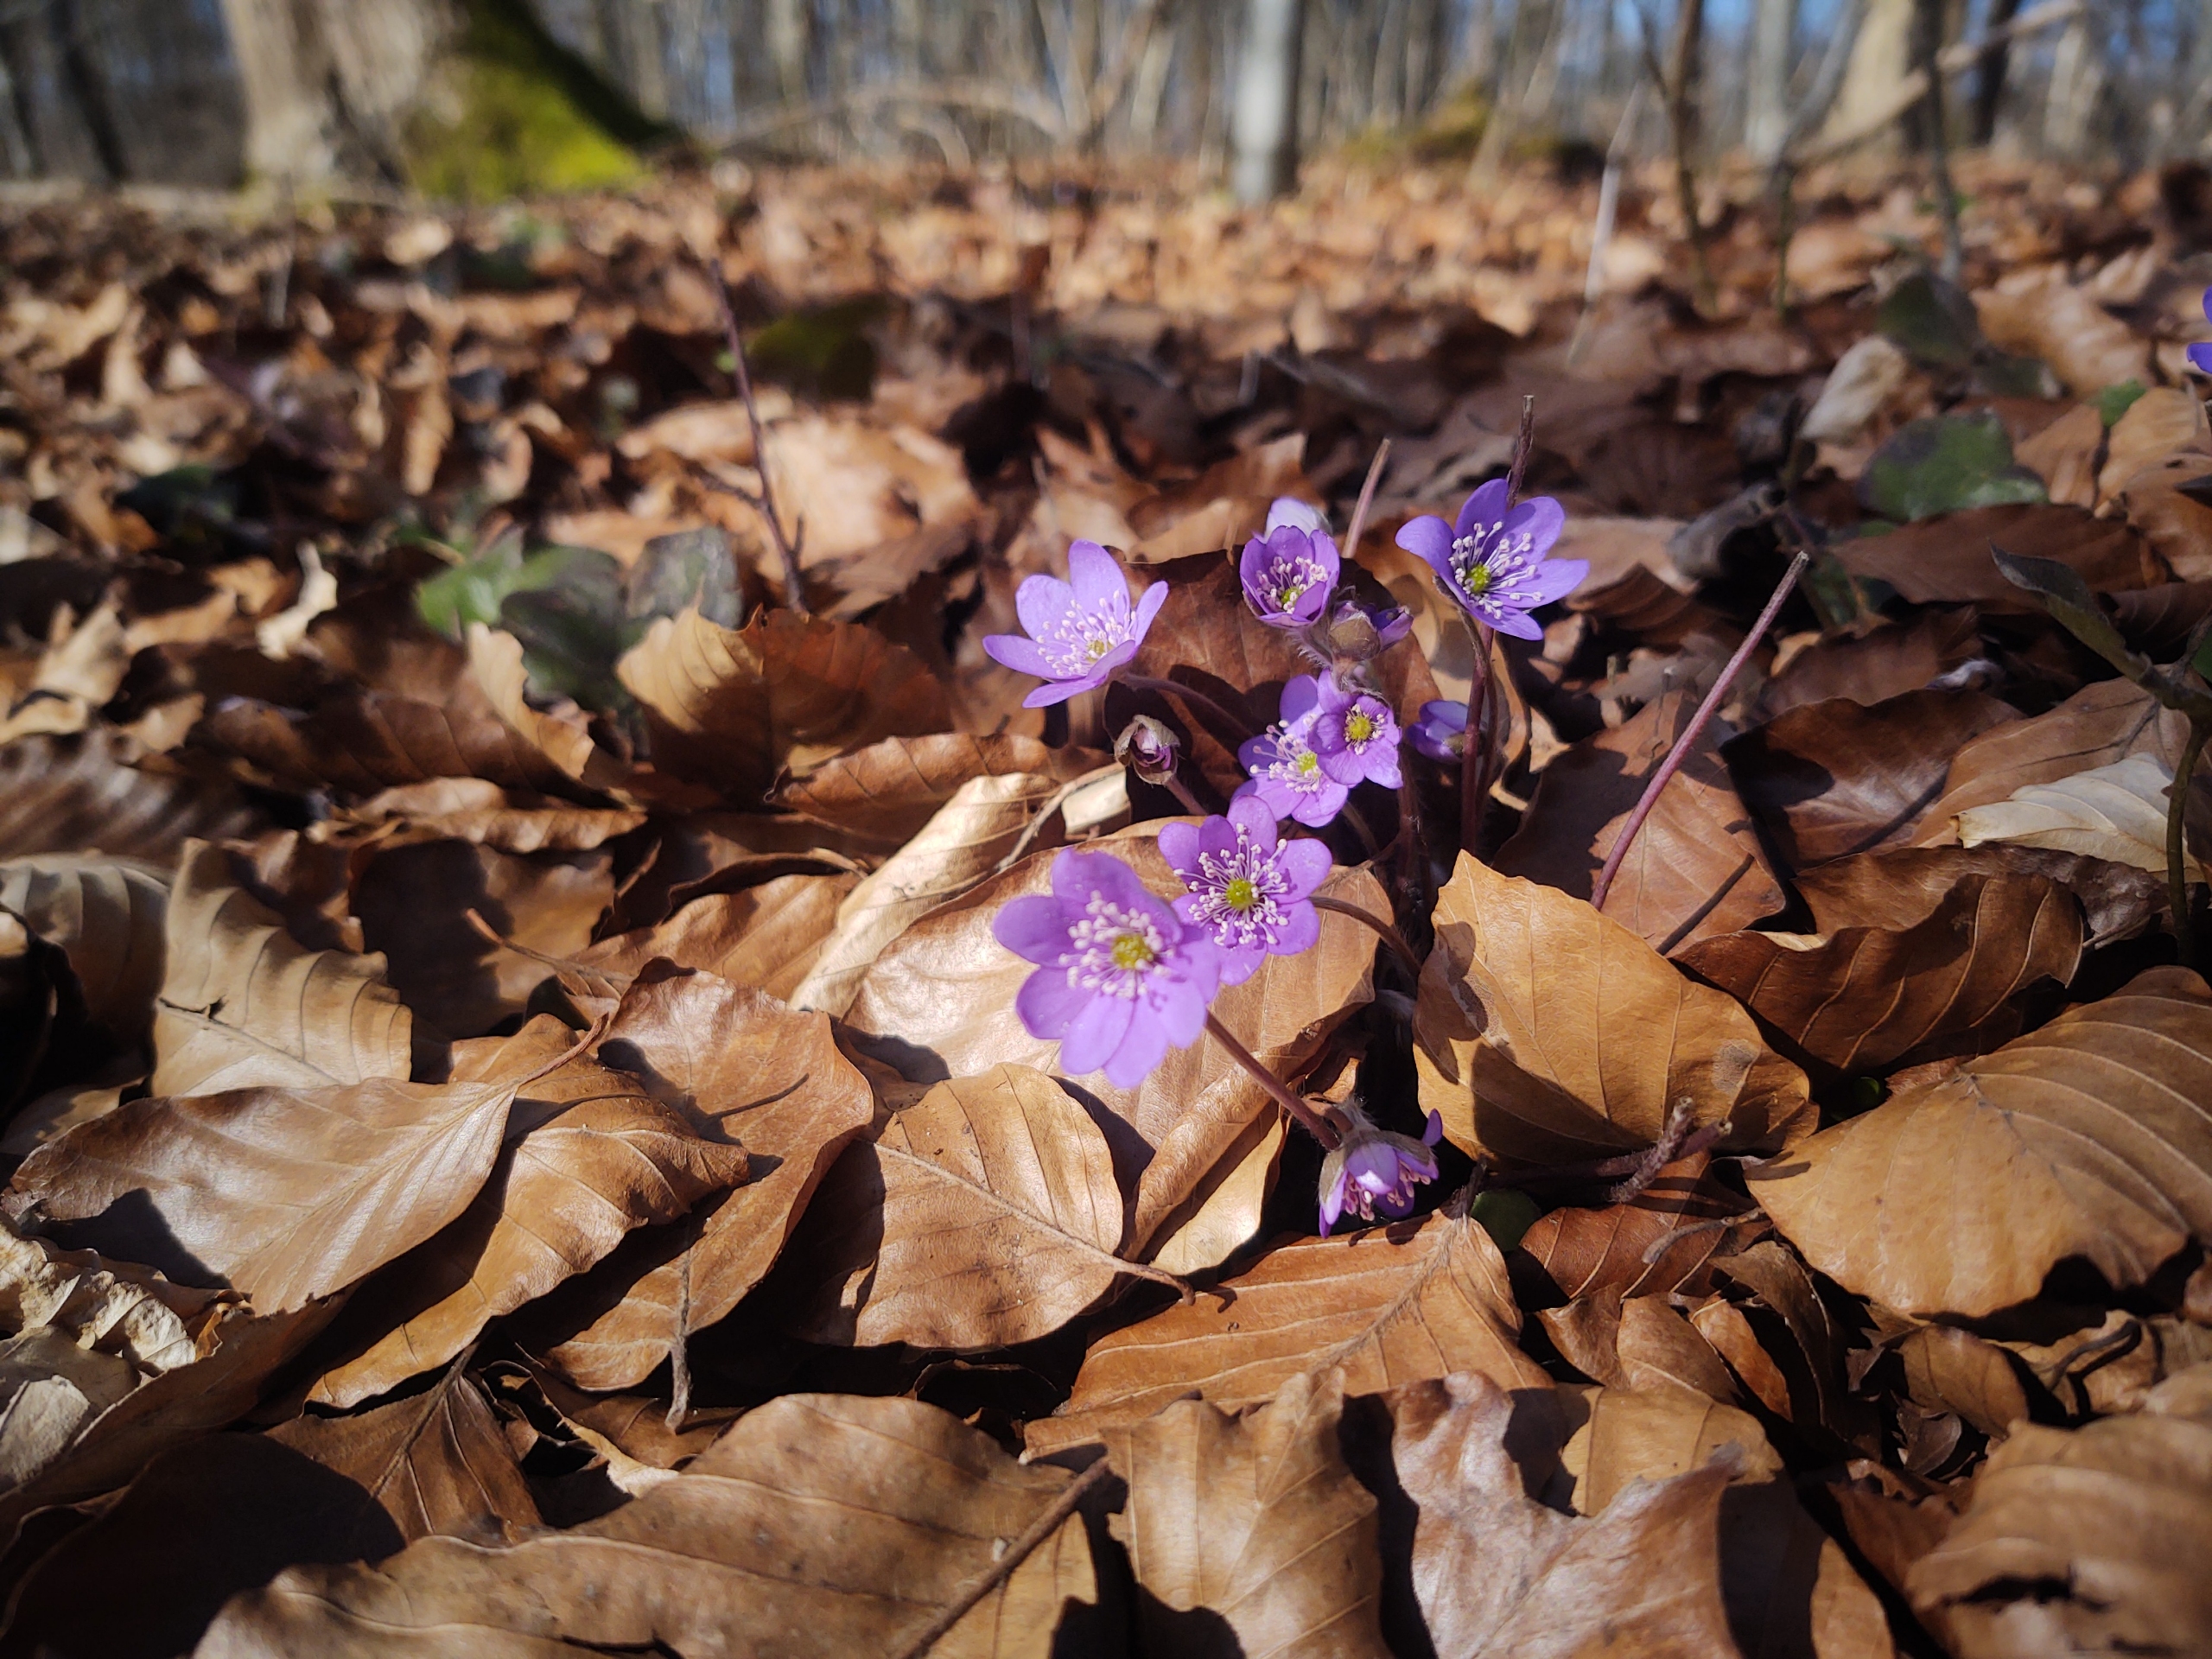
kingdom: Plantae
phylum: Tracheophyta
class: Magnoliopsida
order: Ranunculales
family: Ranunculaceae
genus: Hepatica
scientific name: Hepatica nobilis
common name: Blå anemone
